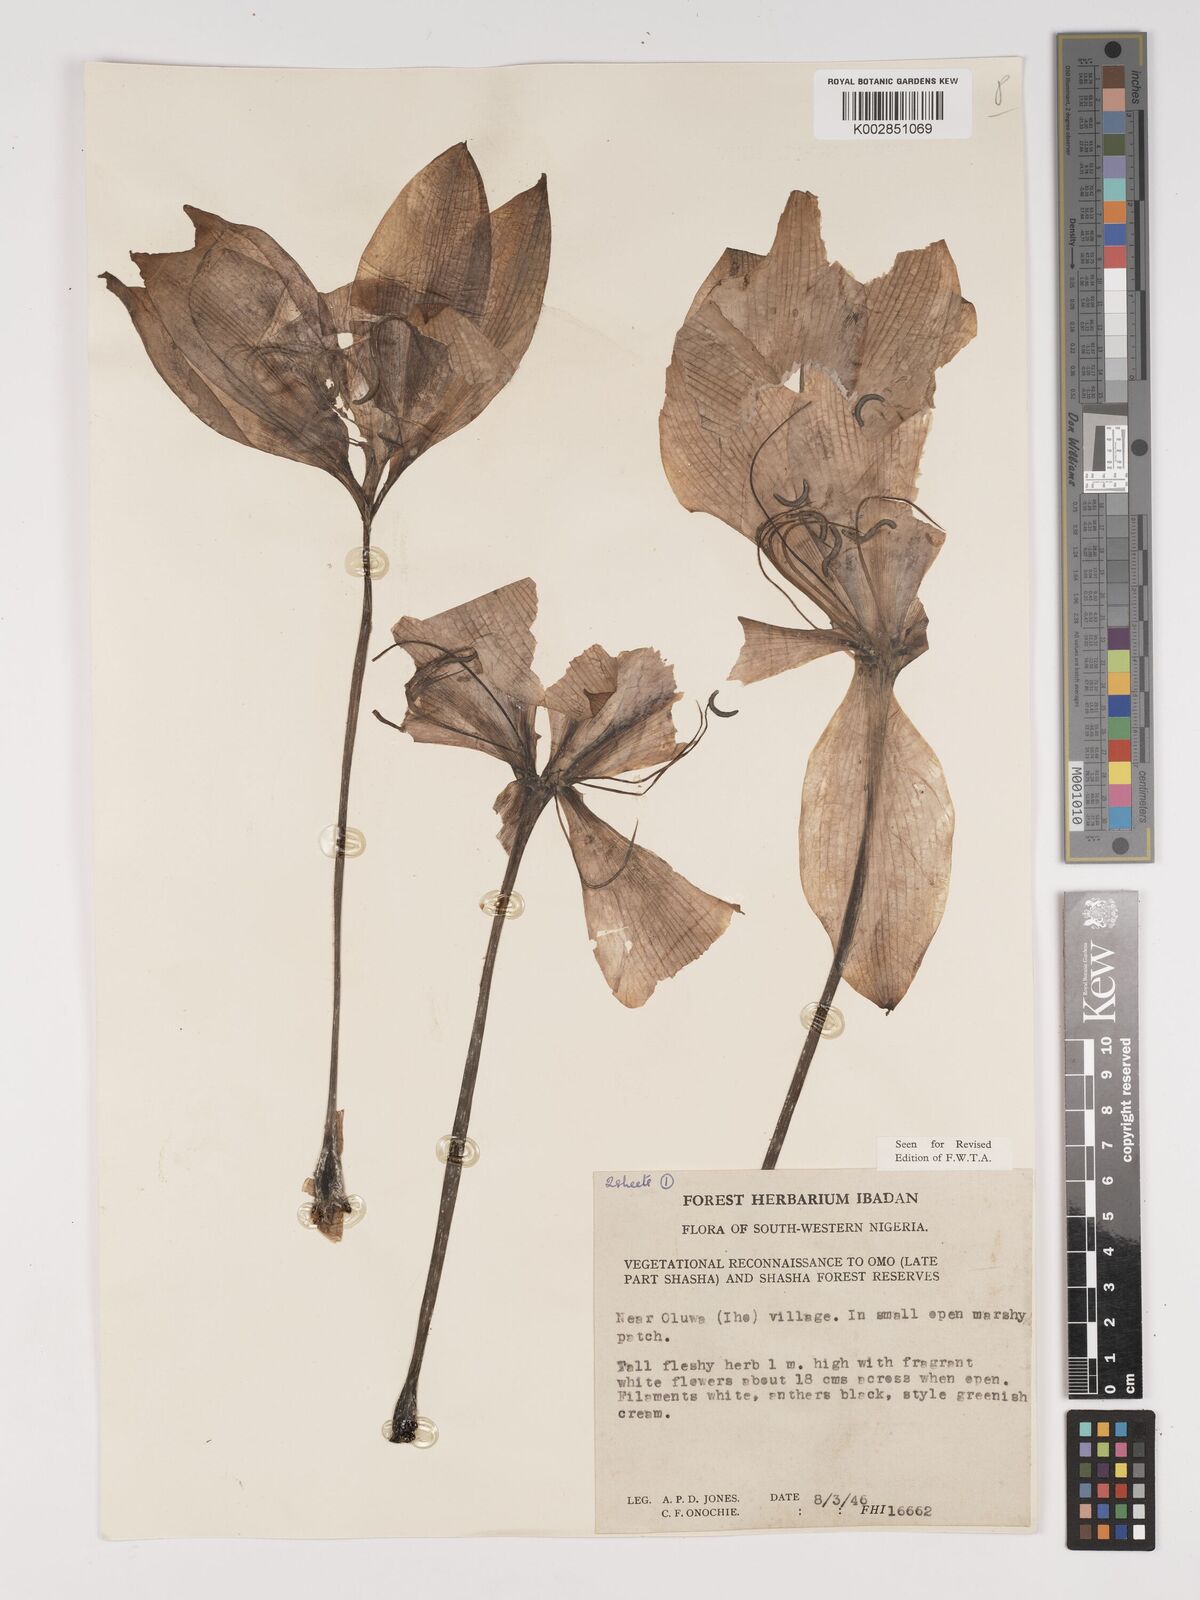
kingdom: Plantae
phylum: Tracheophyta
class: Liliopsida
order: Asparagales
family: Amaryllidaceae
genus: Crinum
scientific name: Crinum jagus
